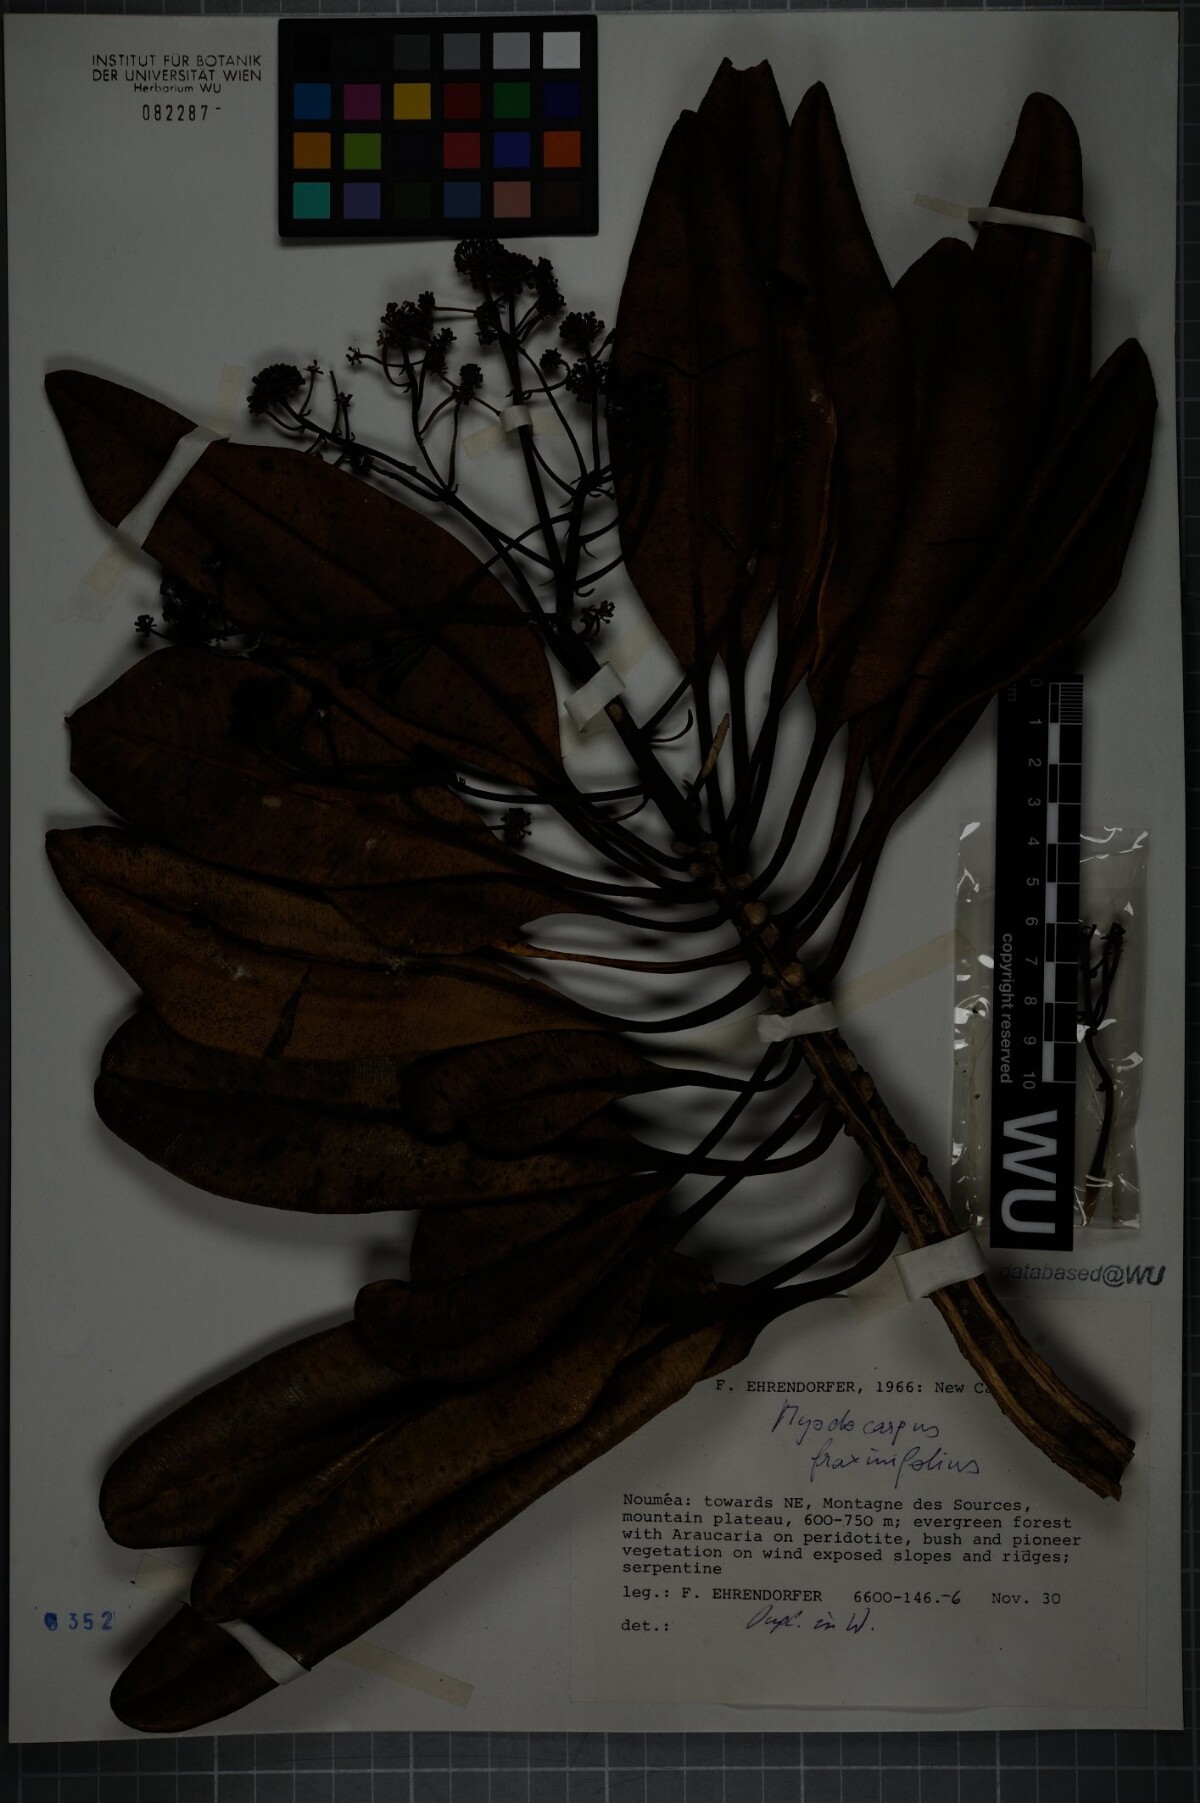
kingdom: Plantae
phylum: Tracheophyta
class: Magnoliopsida
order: Apiales
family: Myodocarpaceae
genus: Myodocarpus
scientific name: Myodocarpus fraxinifolius
